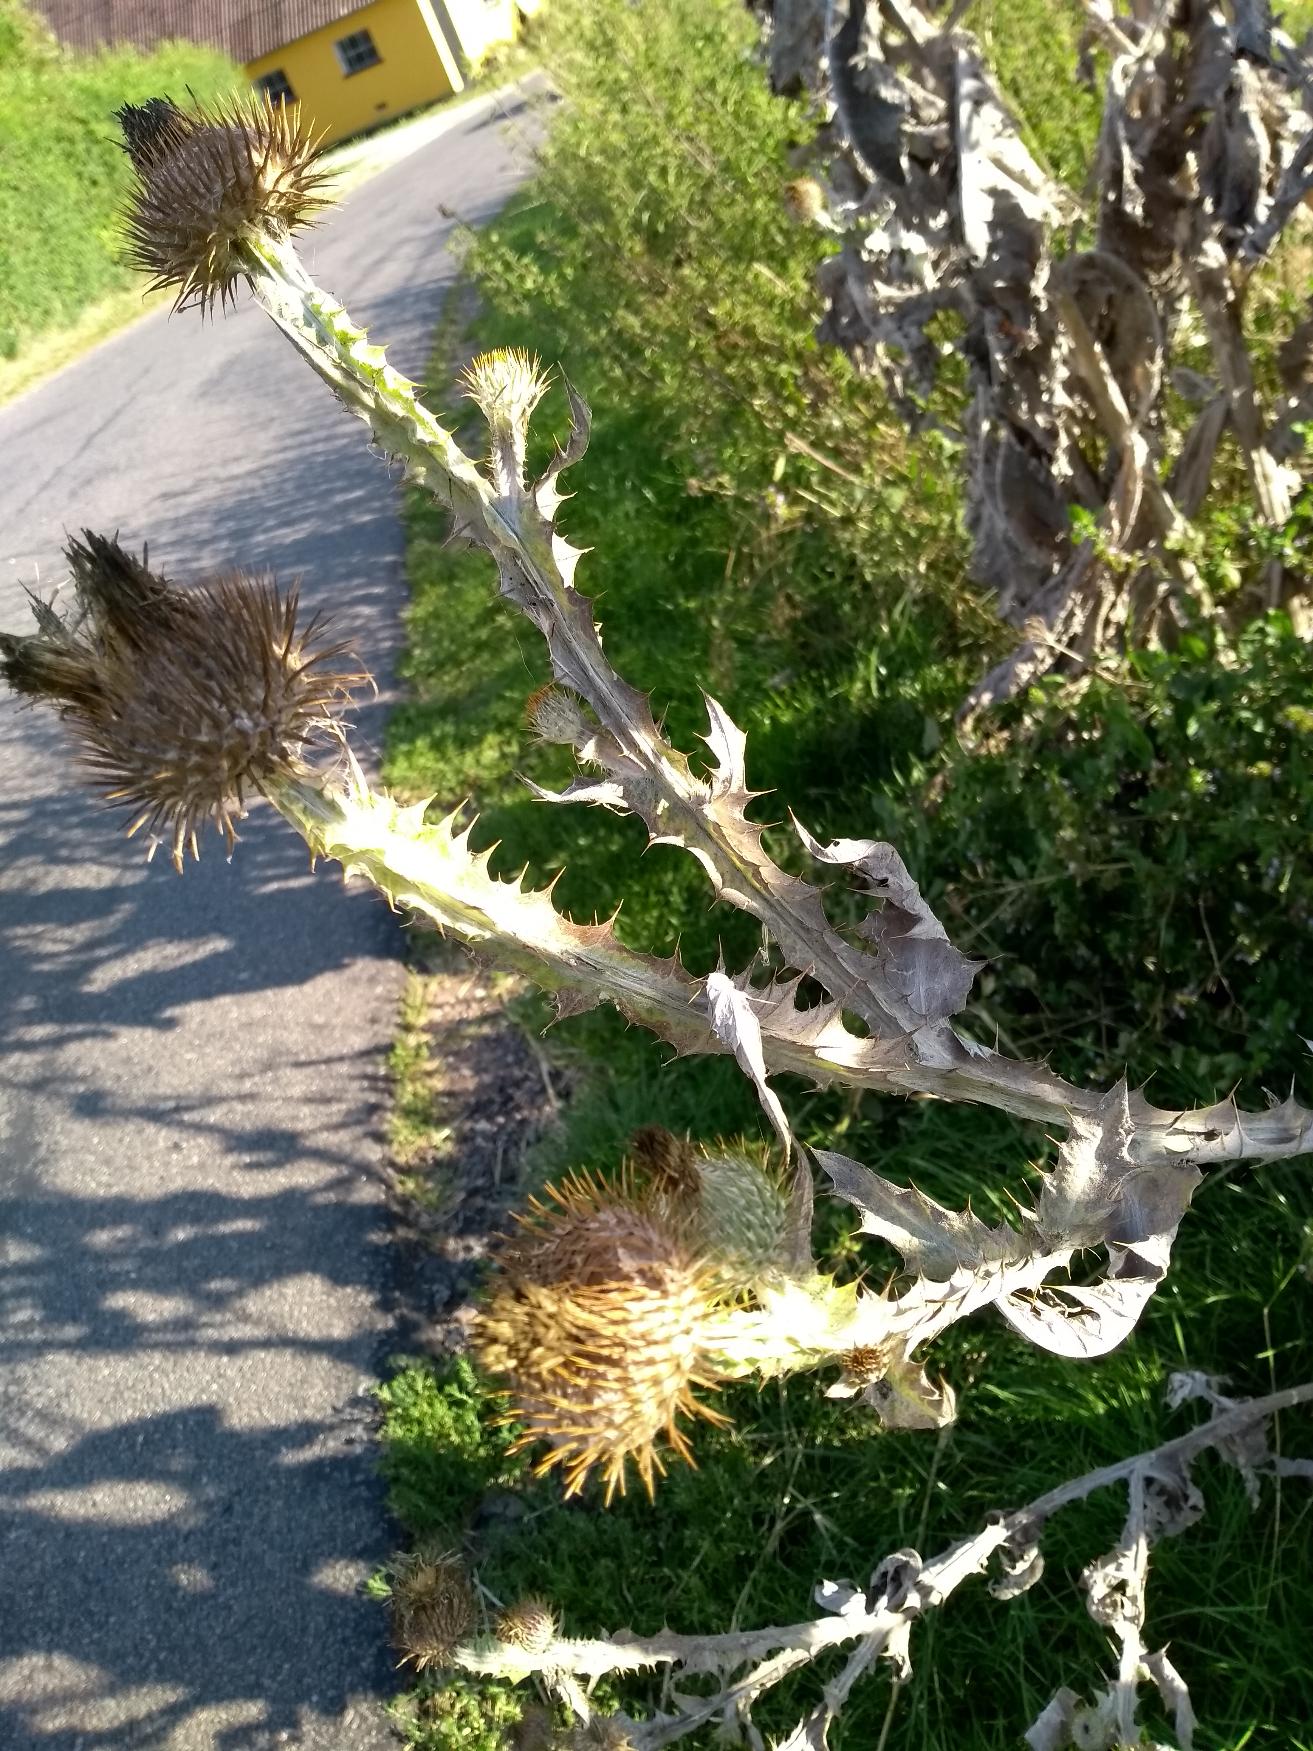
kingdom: Plantae
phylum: Tracheophyta
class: Magnoliopsida
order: Asterales
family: Asteraceae
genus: Onopordum
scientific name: Onopordum acanthium
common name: Æselfoder
